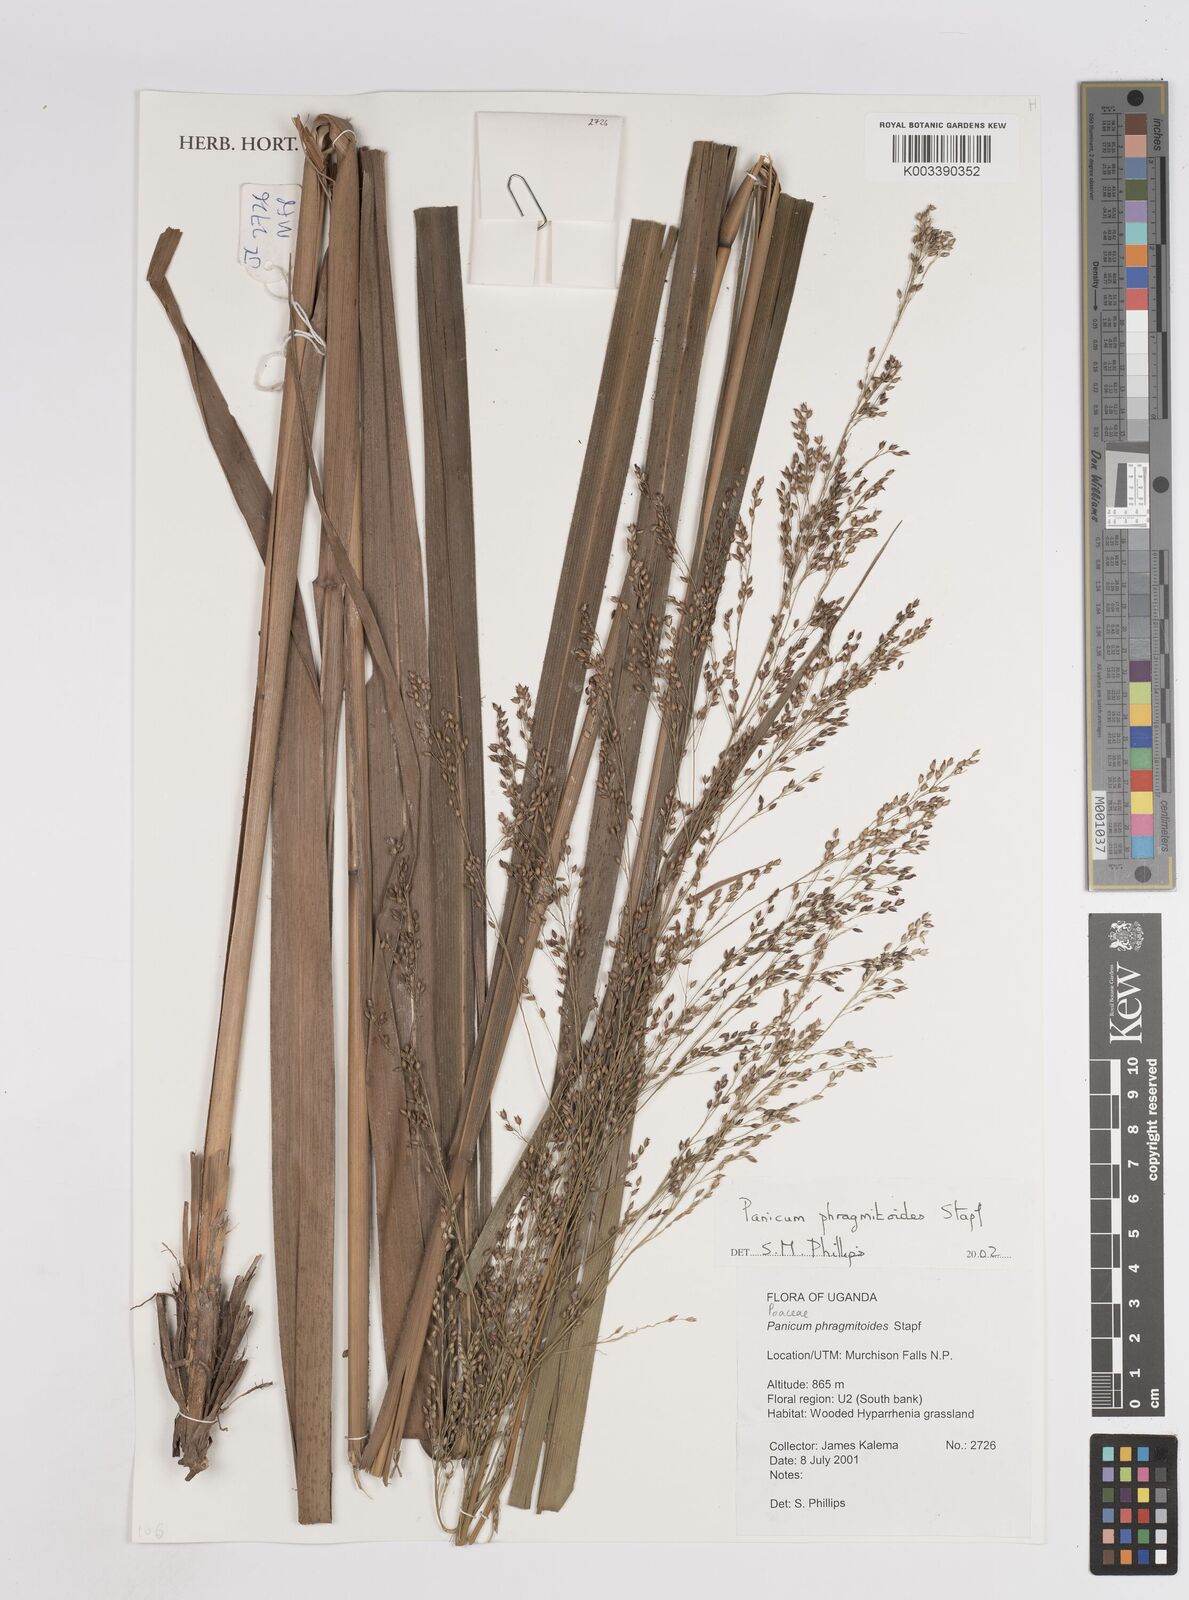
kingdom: Plantae
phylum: Tracheophyta
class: Liliopsida
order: Poales
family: Poaceae
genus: Panicum
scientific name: Panicum phragmitoides
